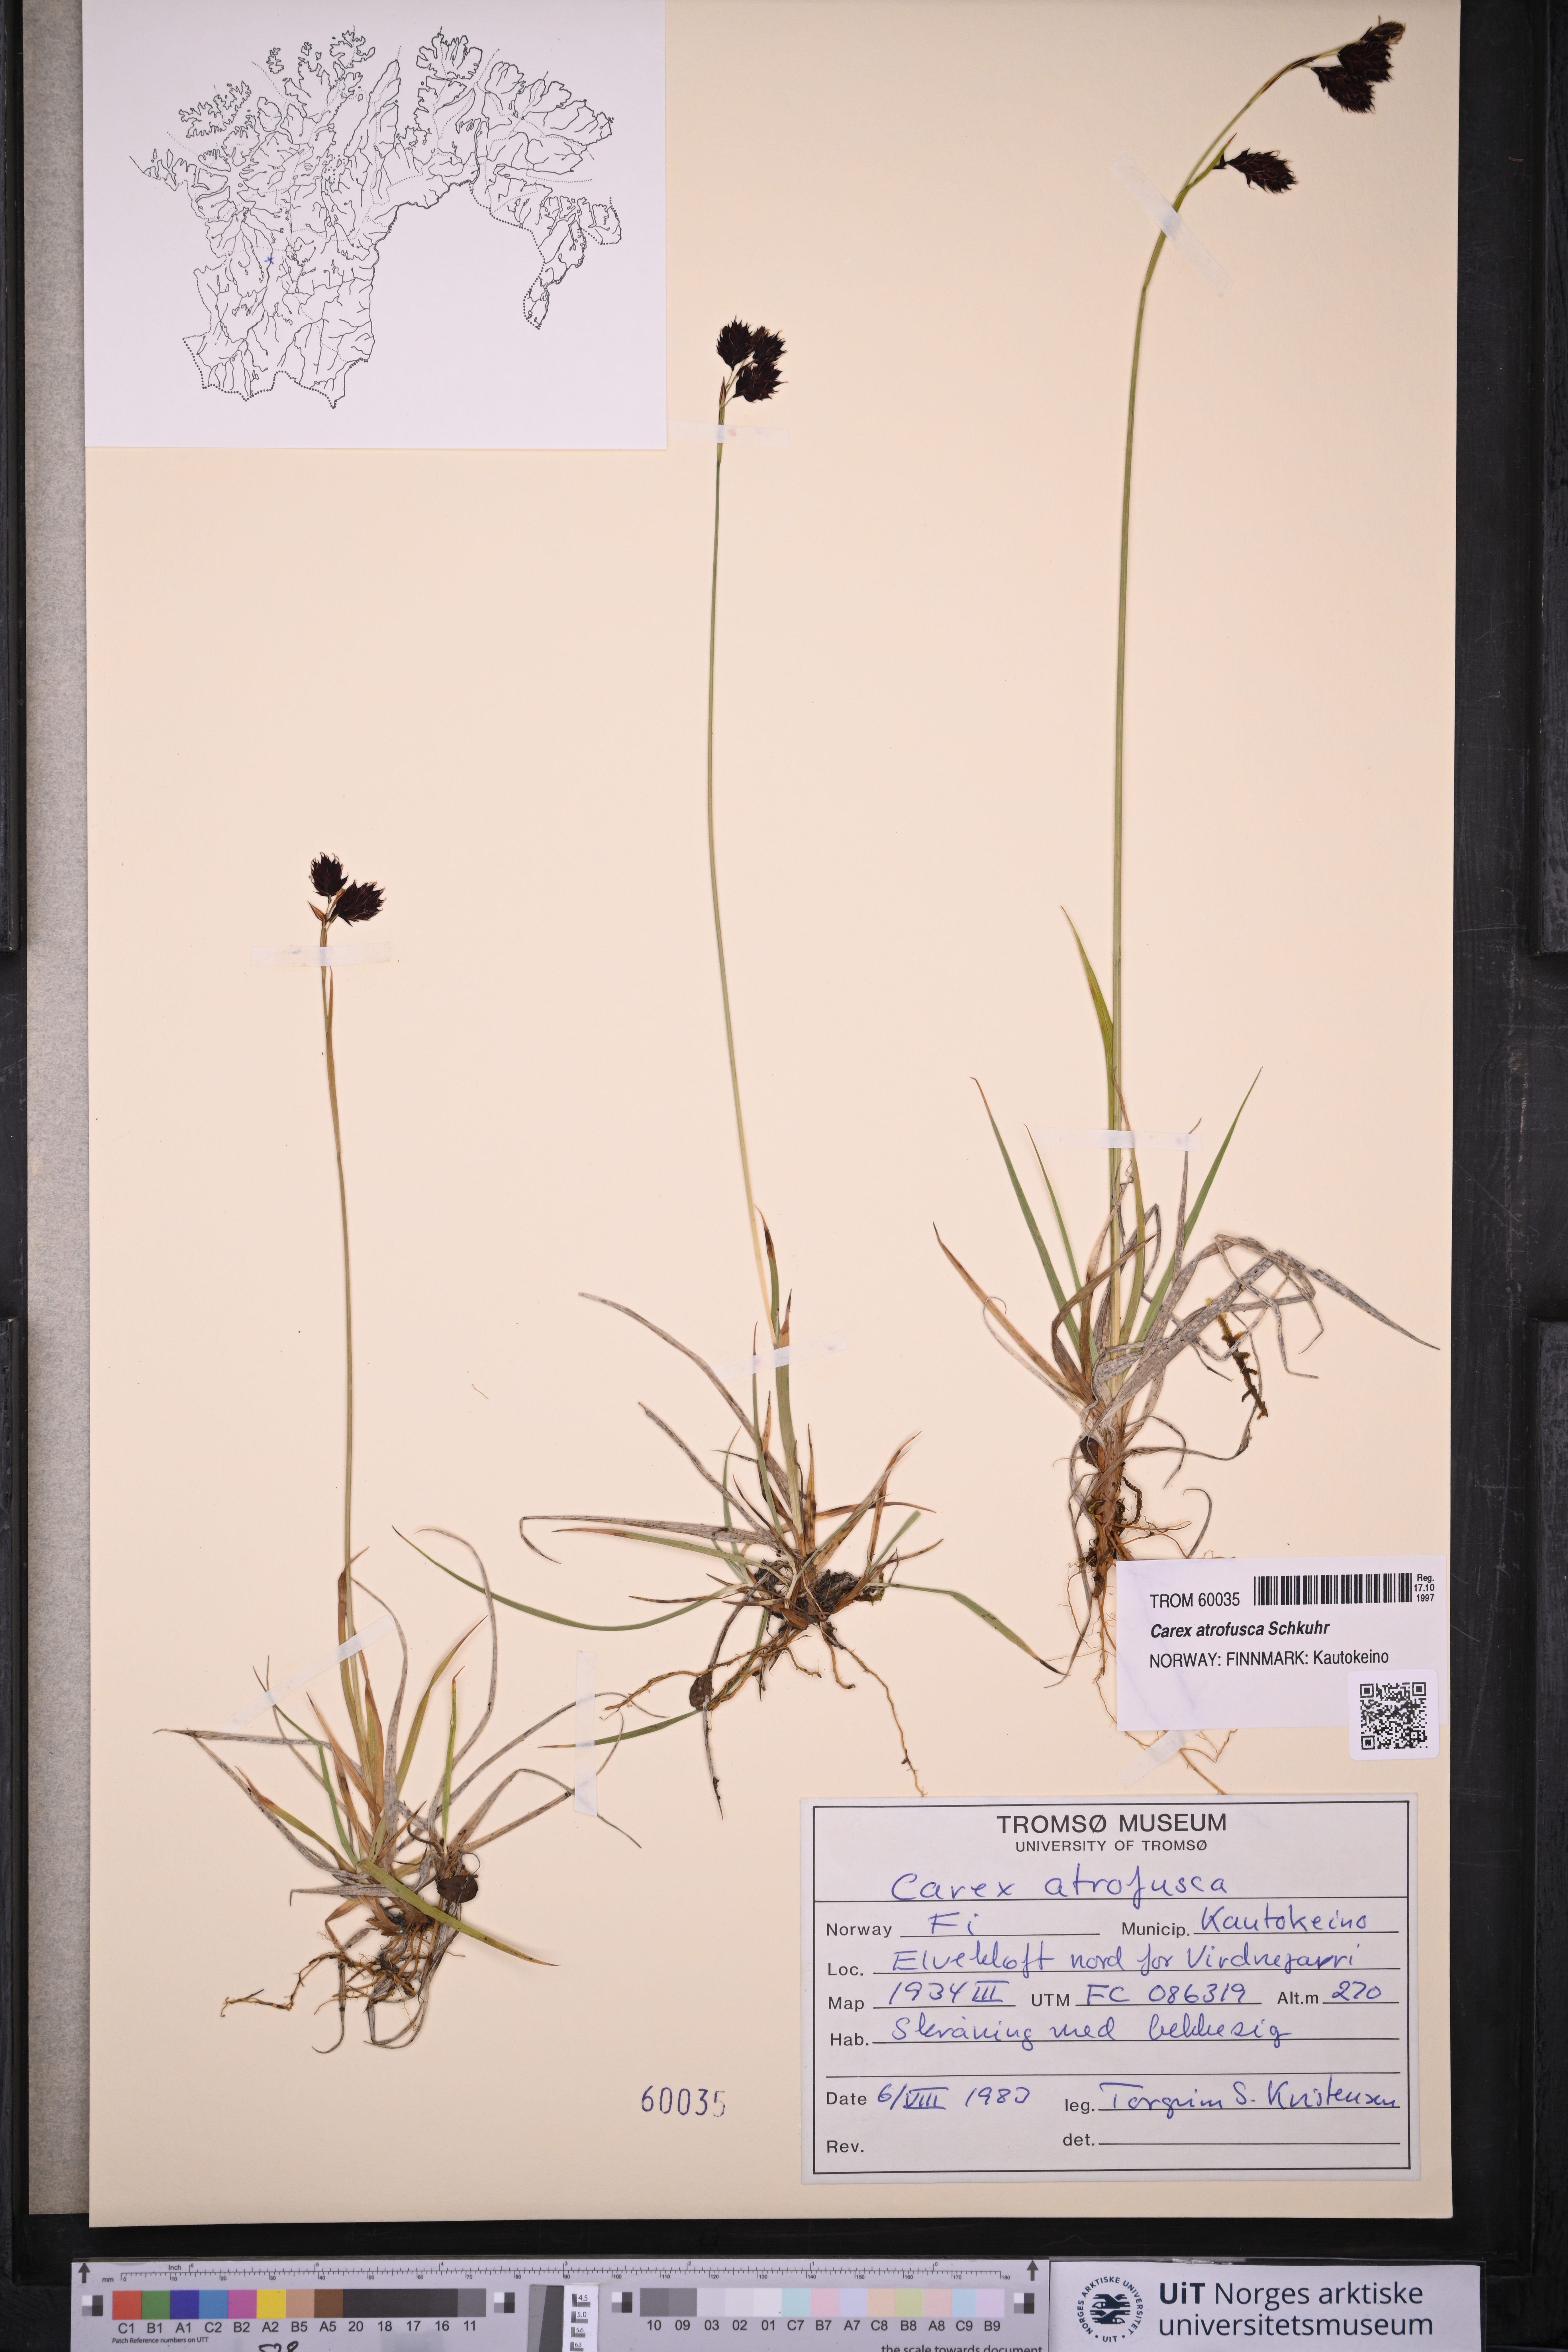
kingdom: Plantae
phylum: Tracheophyta
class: Liliopsida
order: Poales
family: Cyperaceae
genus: Carex
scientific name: Carex atrofusca
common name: Scorched alpine-sedge
